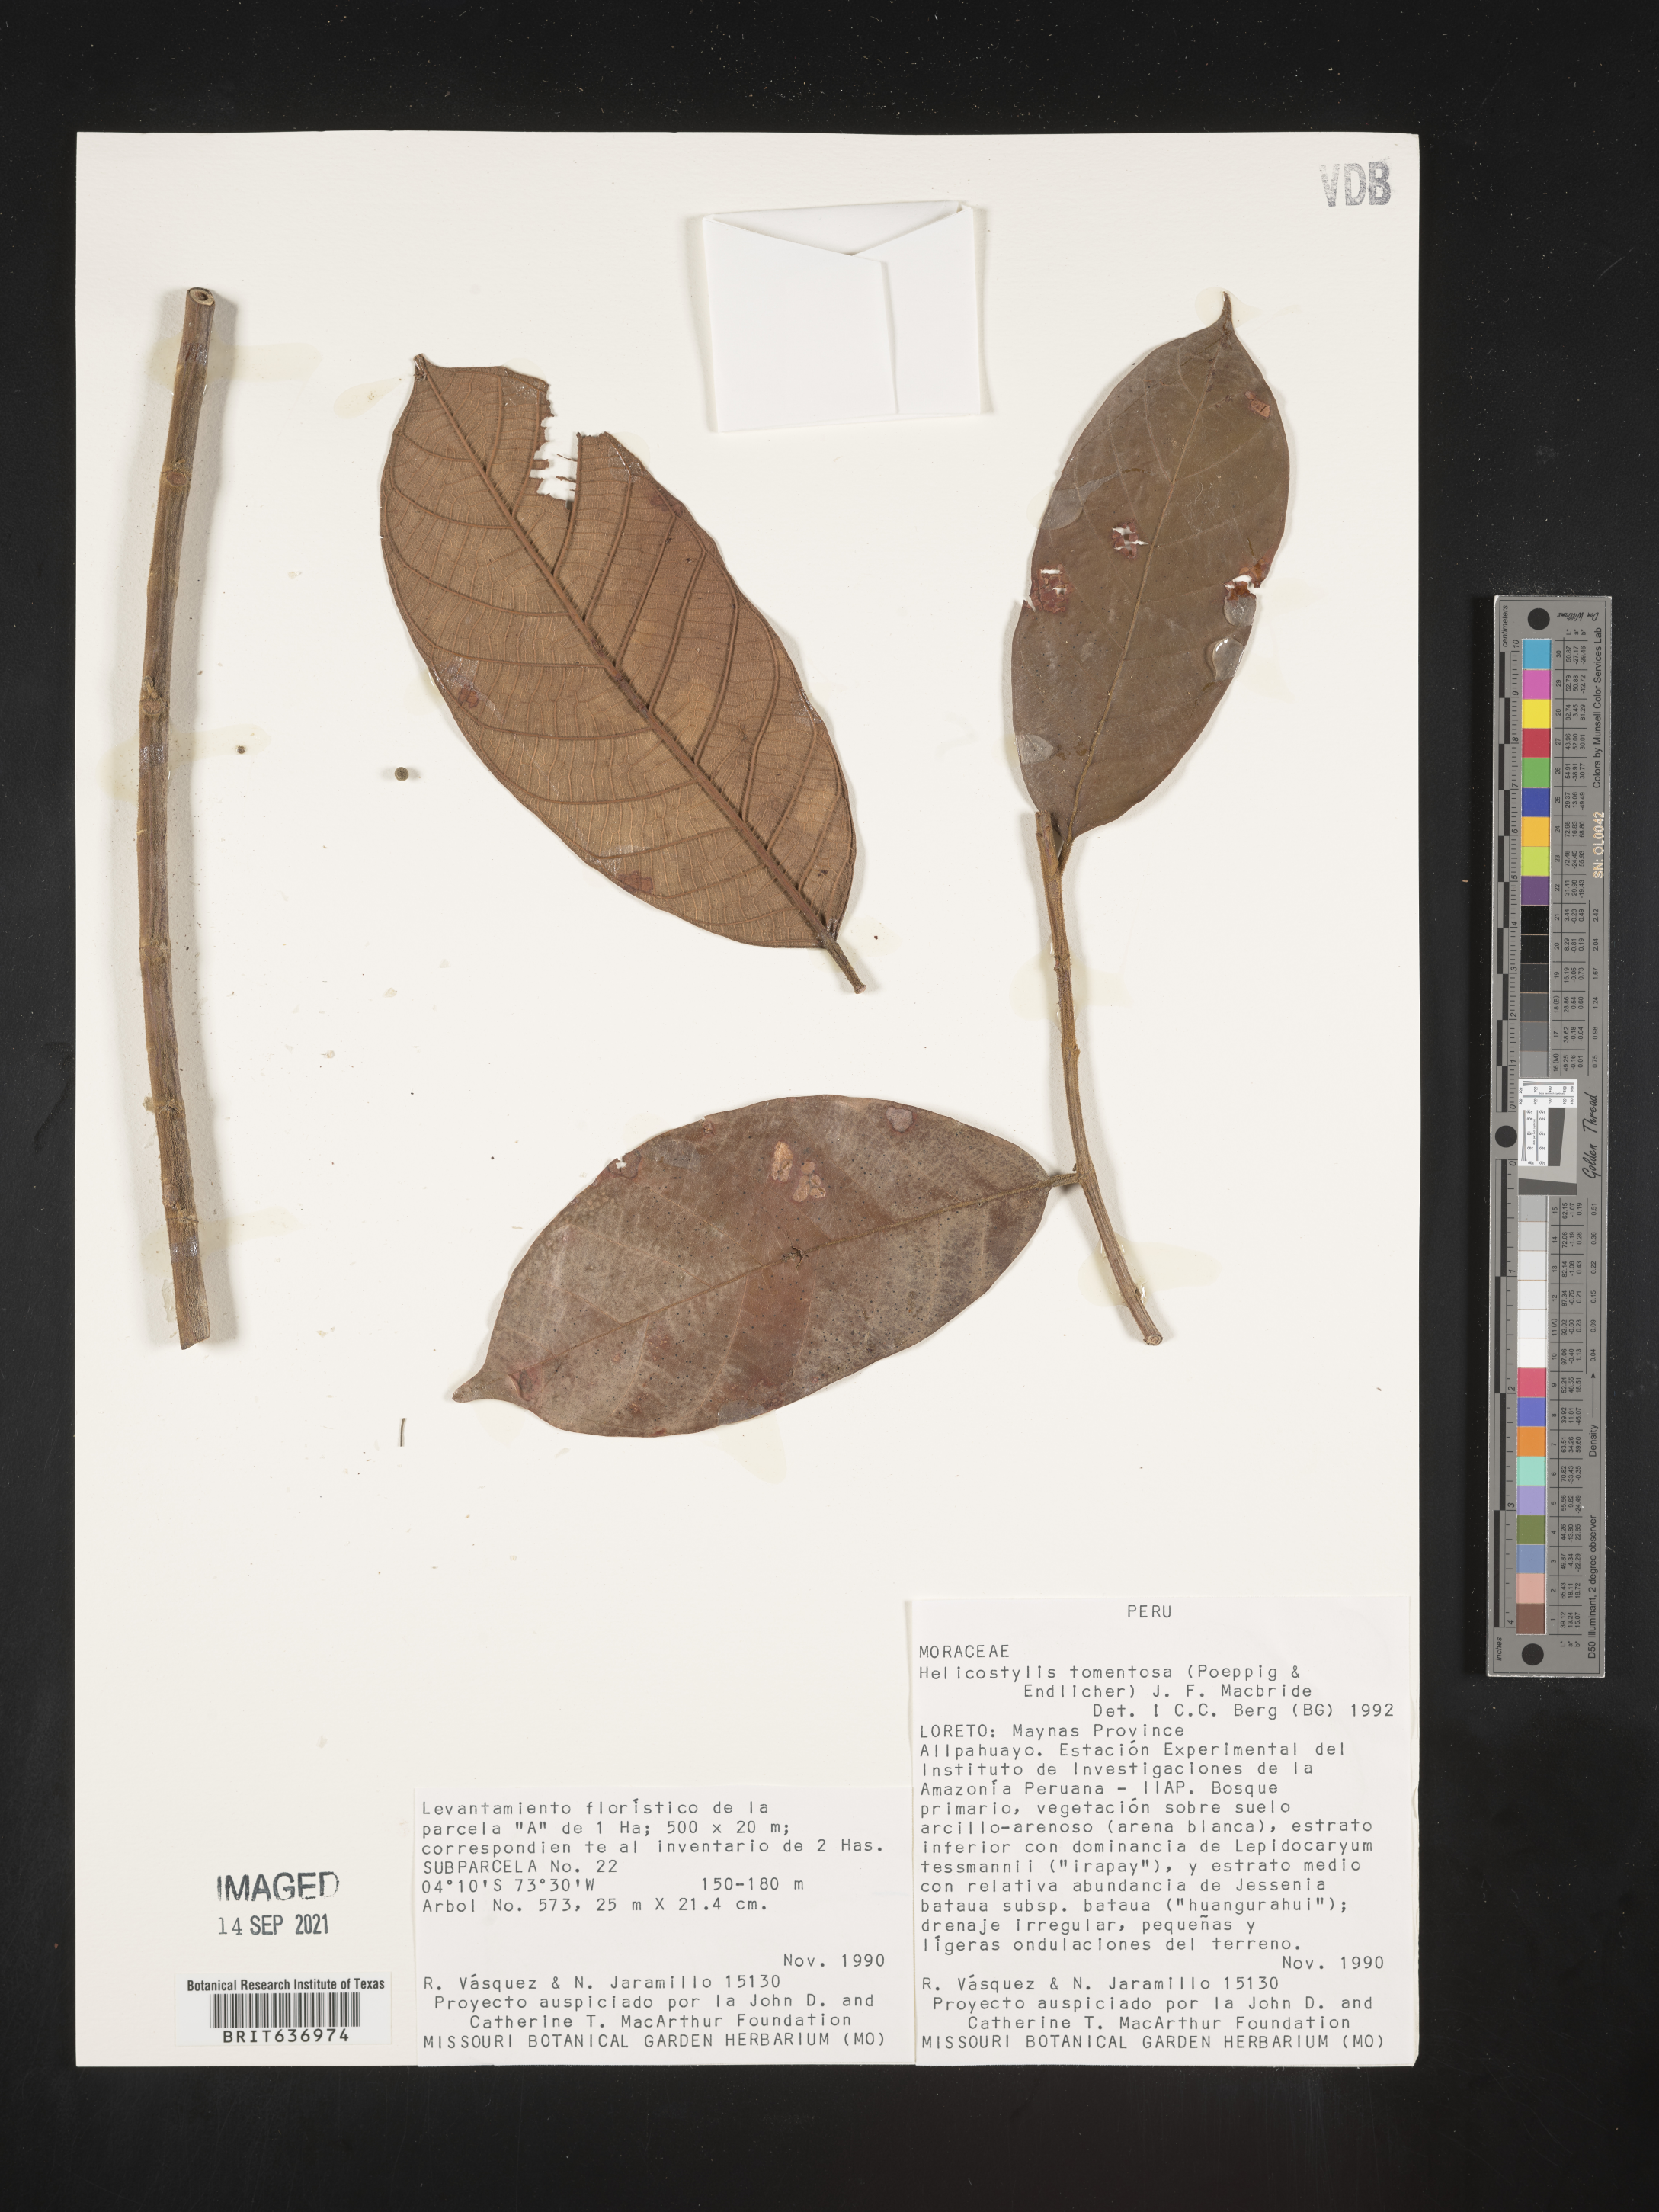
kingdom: Plantae
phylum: Tracheophyta
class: Magnoliopsida
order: Rosales
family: Moraceae
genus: Helicostylis
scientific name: Helicostylis
